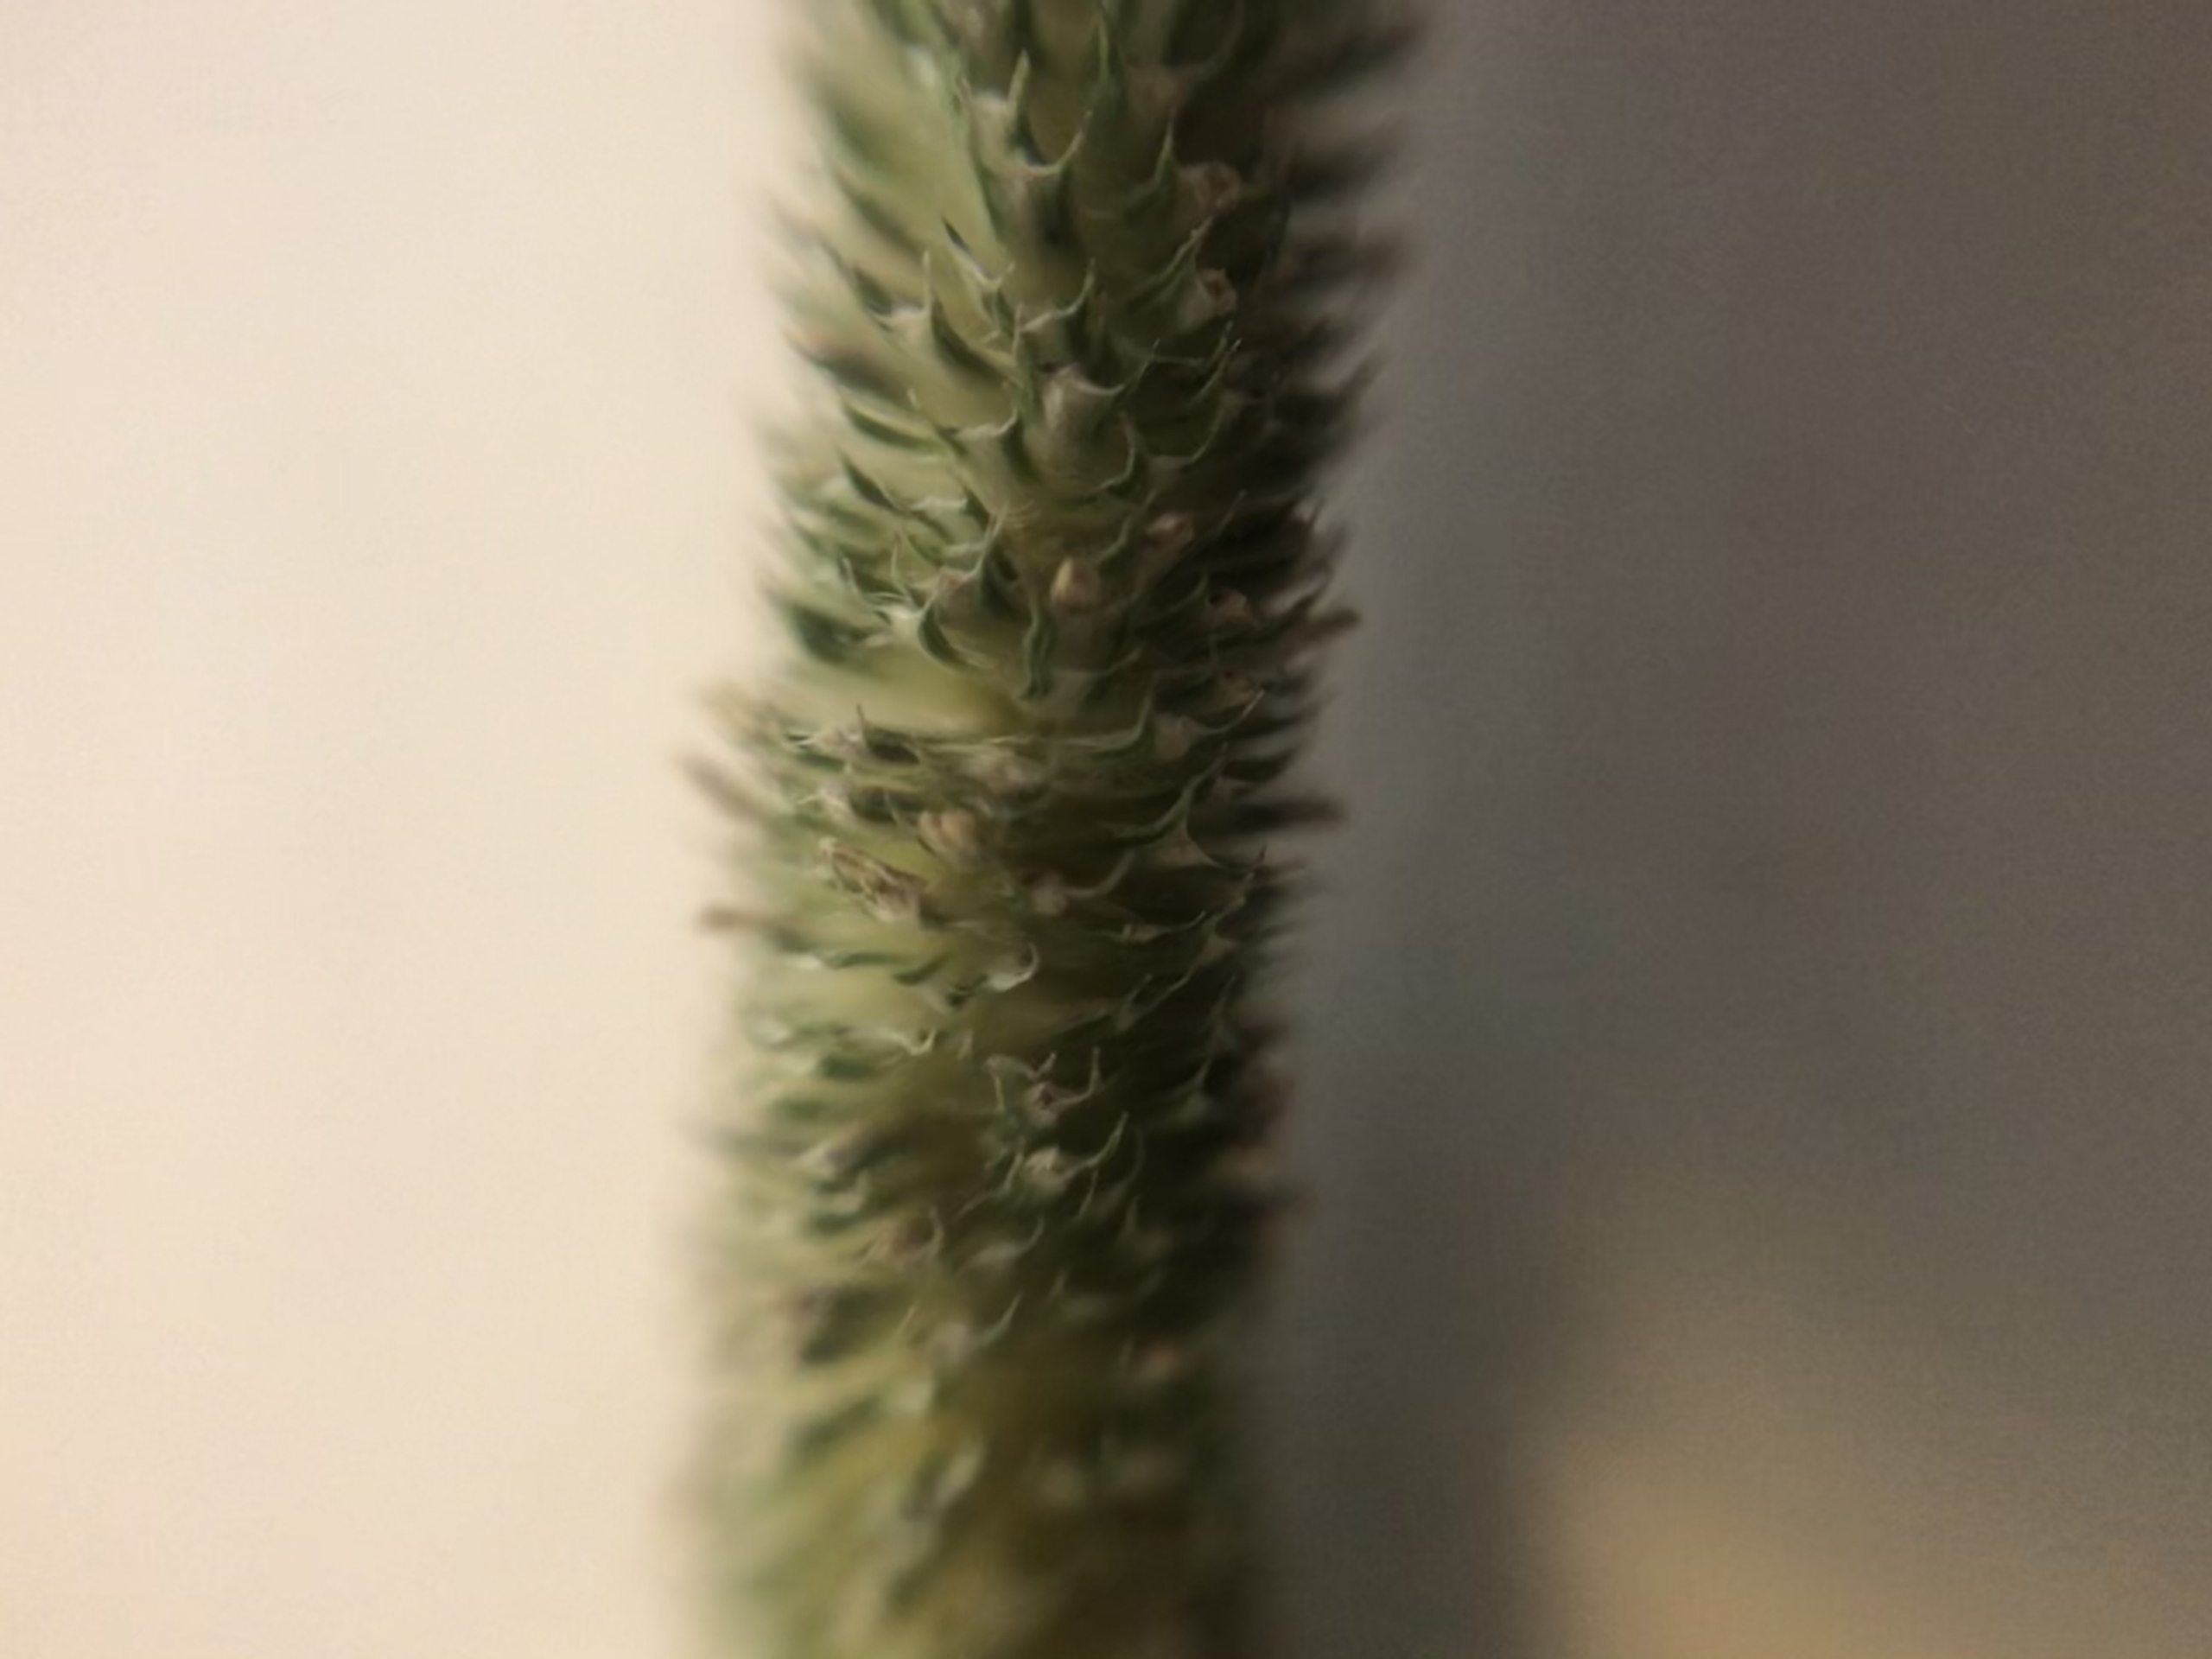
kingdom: Plantae
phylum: Tracheophyta
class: Liliopsida
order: Poales
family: Poaceae
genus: Phleum
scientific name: Phleum pratense
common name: Eng-rottehale
